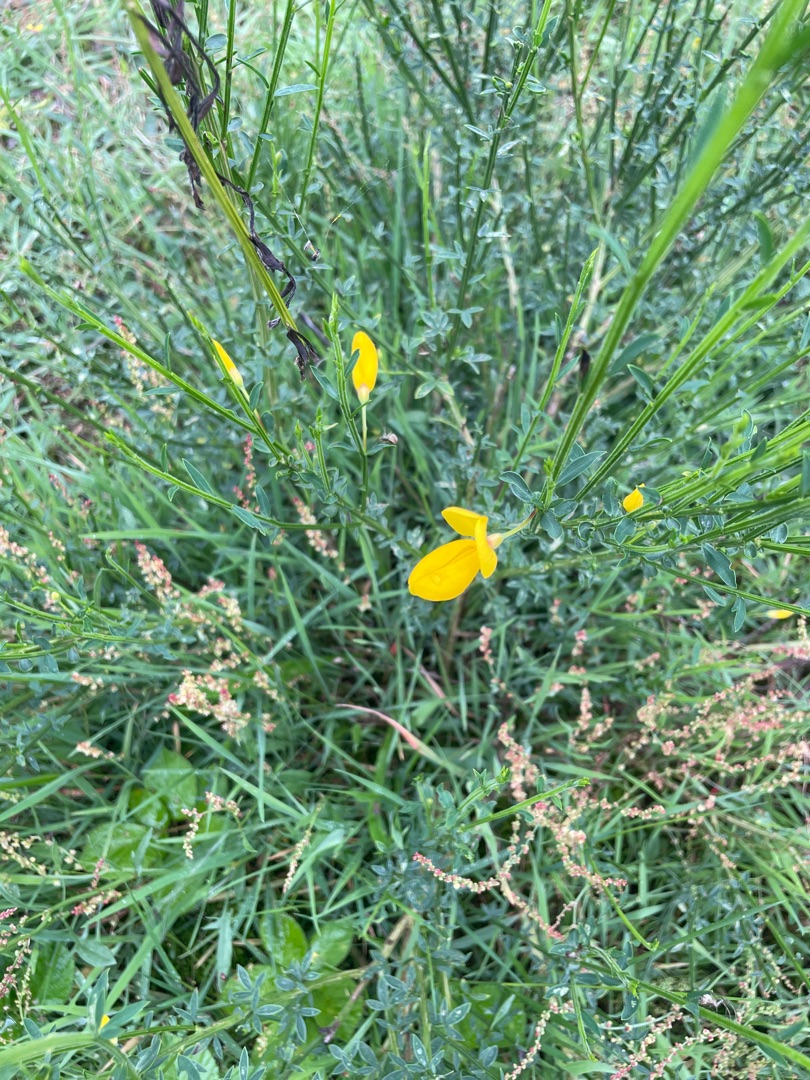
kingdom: Plantae
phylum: Tracheophyta
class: Magnoliopsida
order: Fabales
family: Fabaceae
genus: Cytisus
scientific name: Cytisus scoparius
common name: Almindelig gyvel
